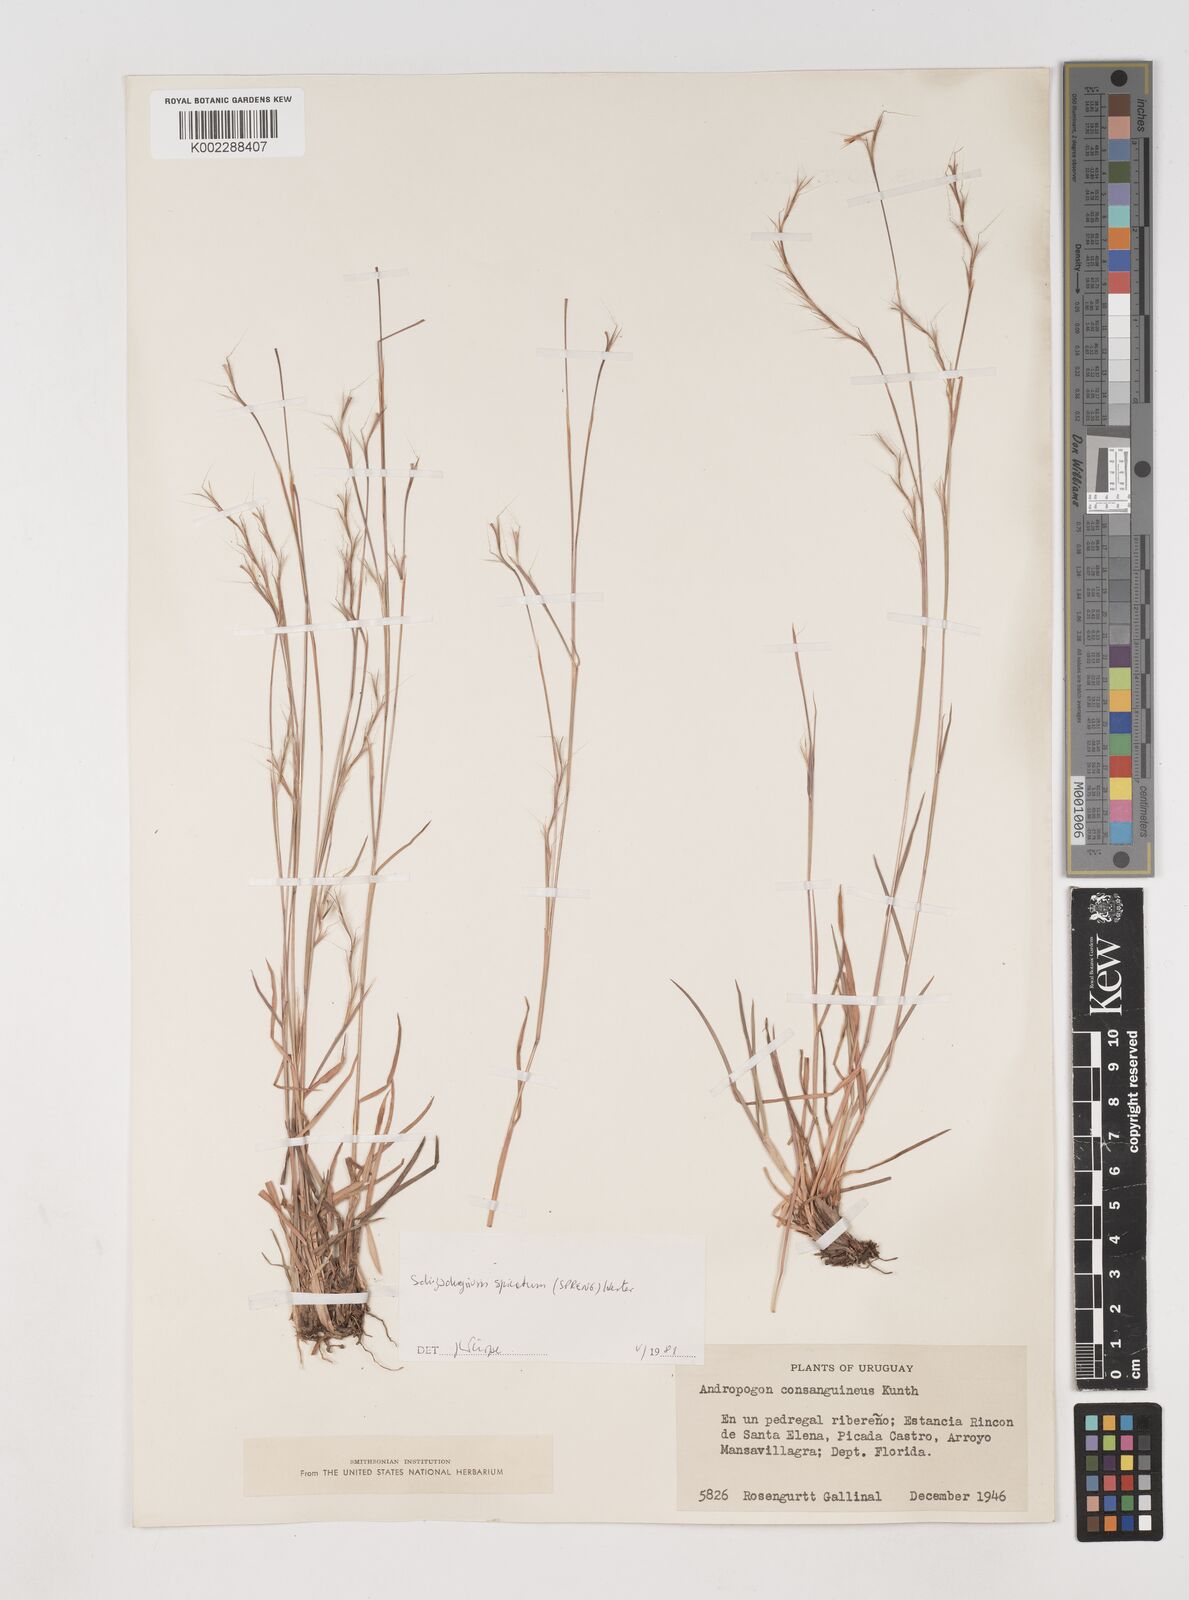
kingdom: Plantae
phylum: Tracheophyta
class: Liliopsida
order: Poales
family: Poaceae
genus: Schizachyrium
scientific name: Schizachyrium spicatum
